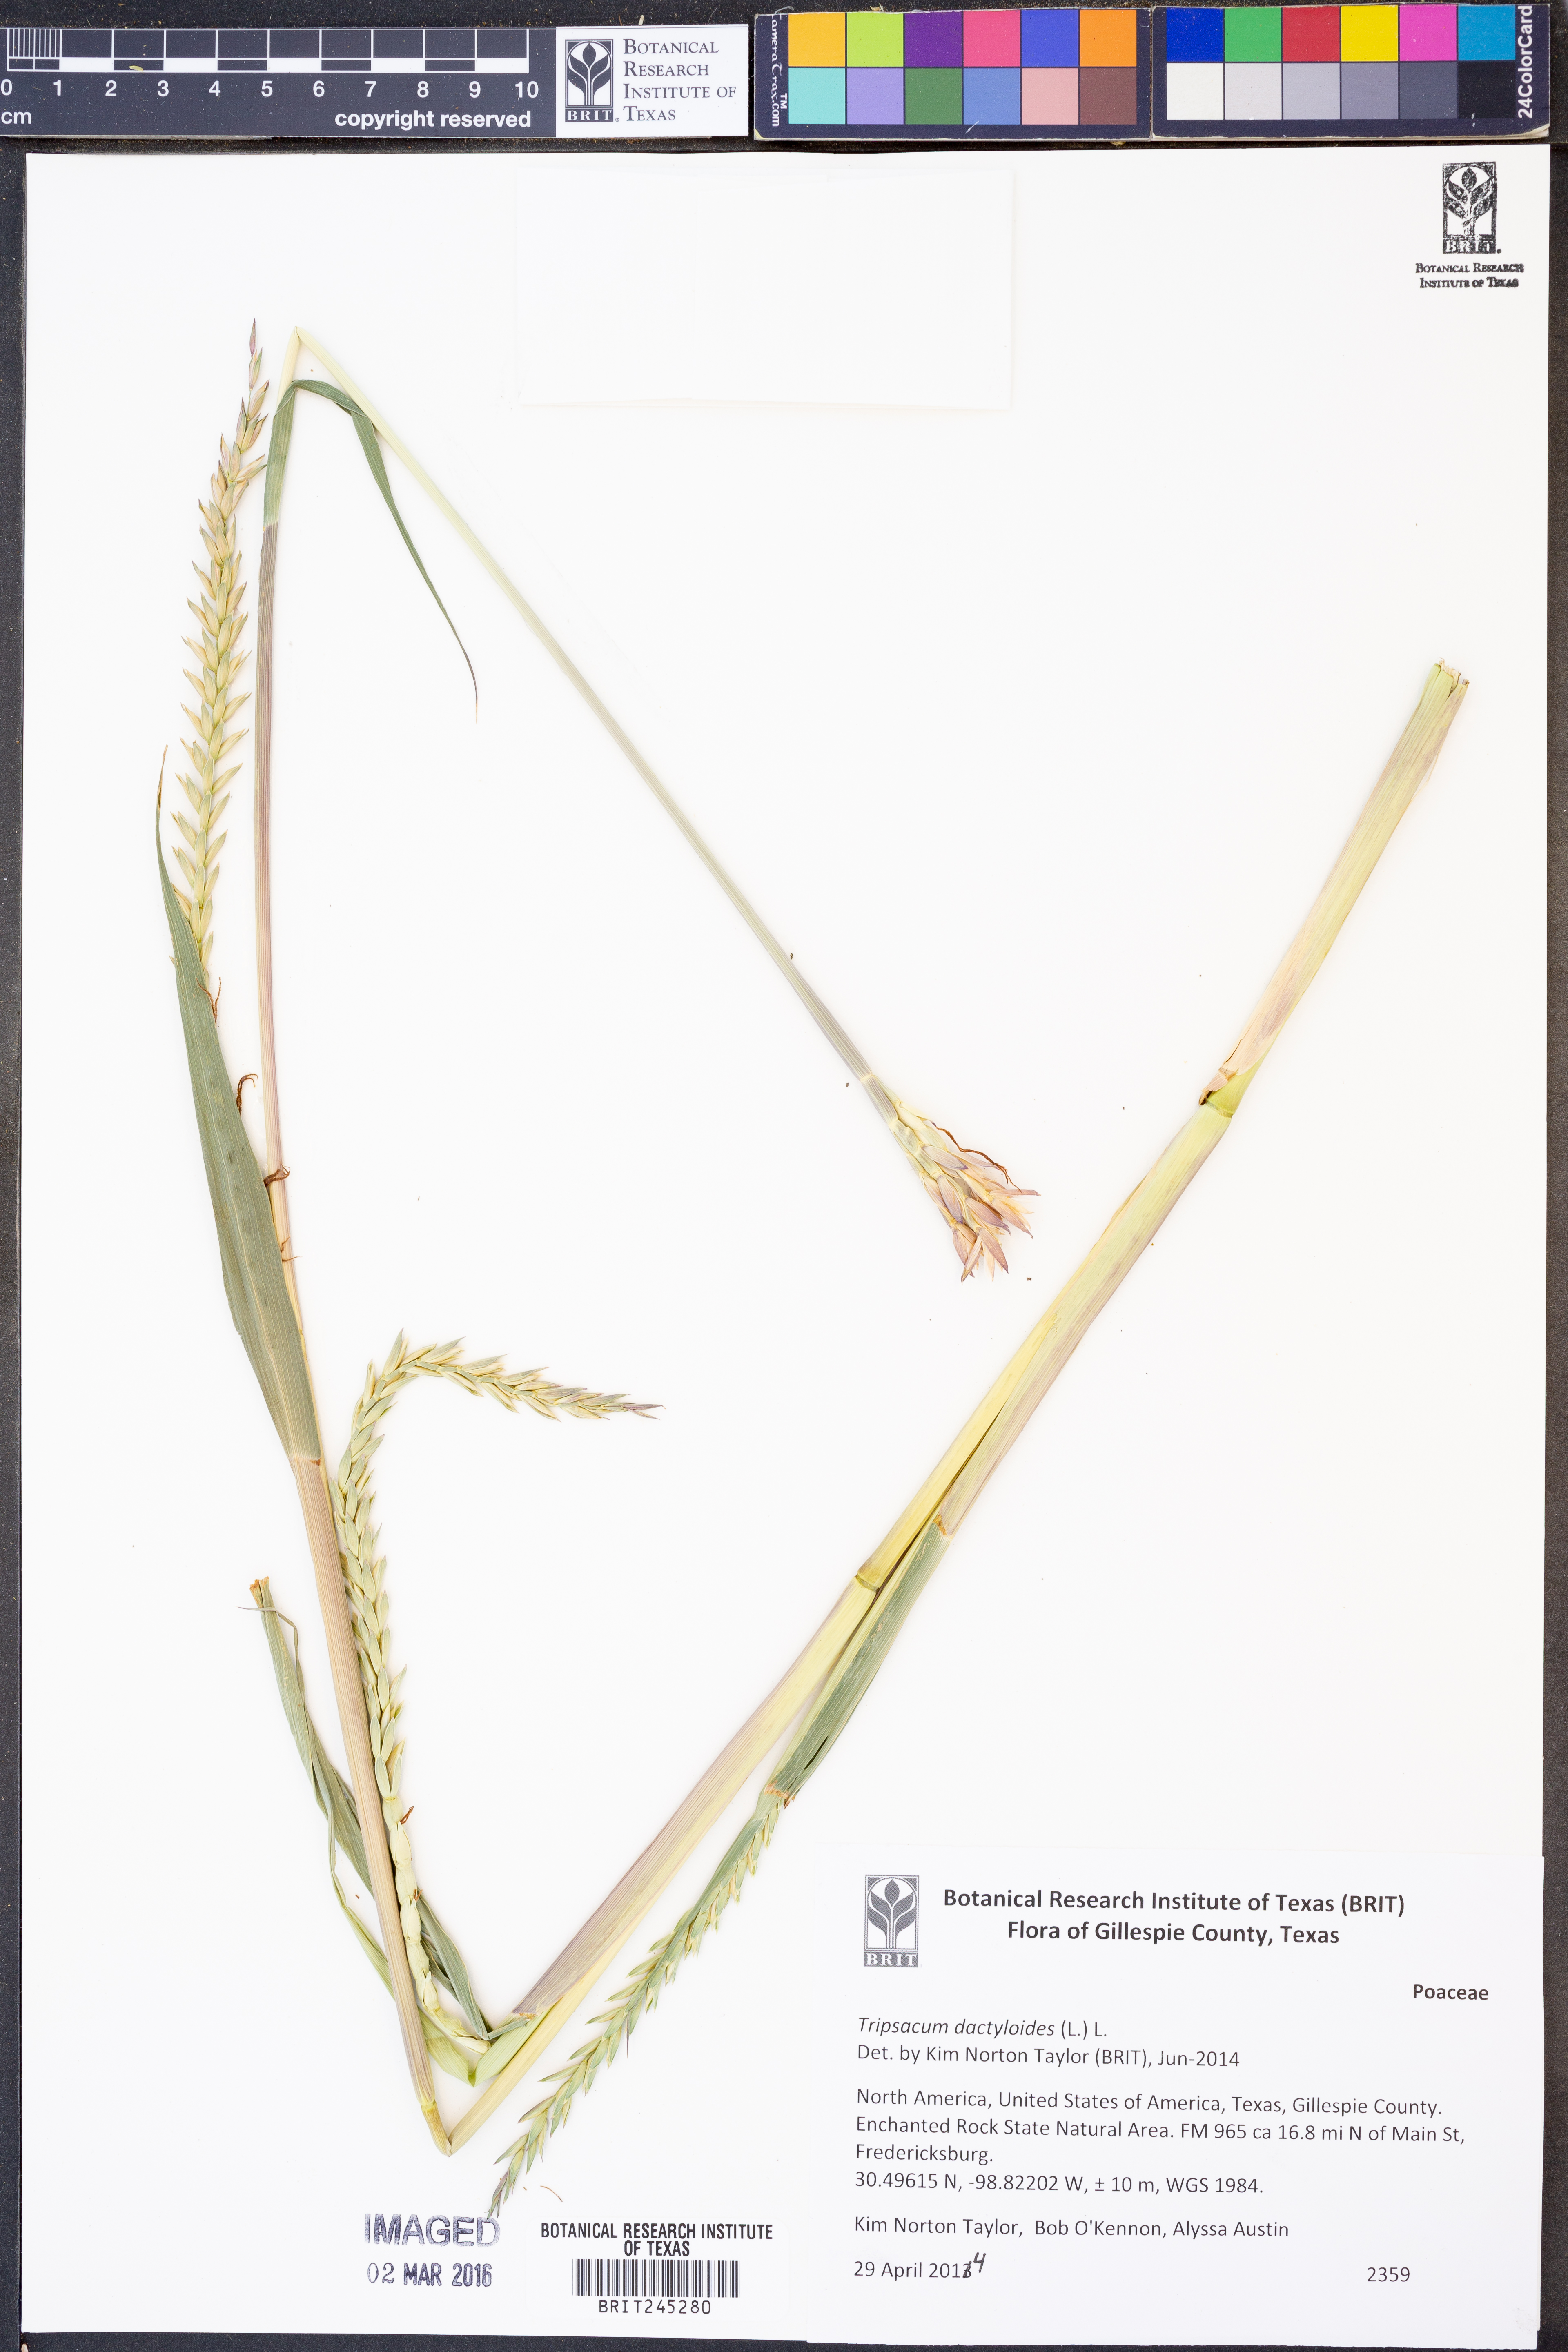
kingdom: Plantae
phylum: Tracheophyta
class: Liliopsida
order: Poales
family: Poaceae
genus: Tripsacum
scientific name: Tripsacum dactyloides
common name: Buffalo-grass
